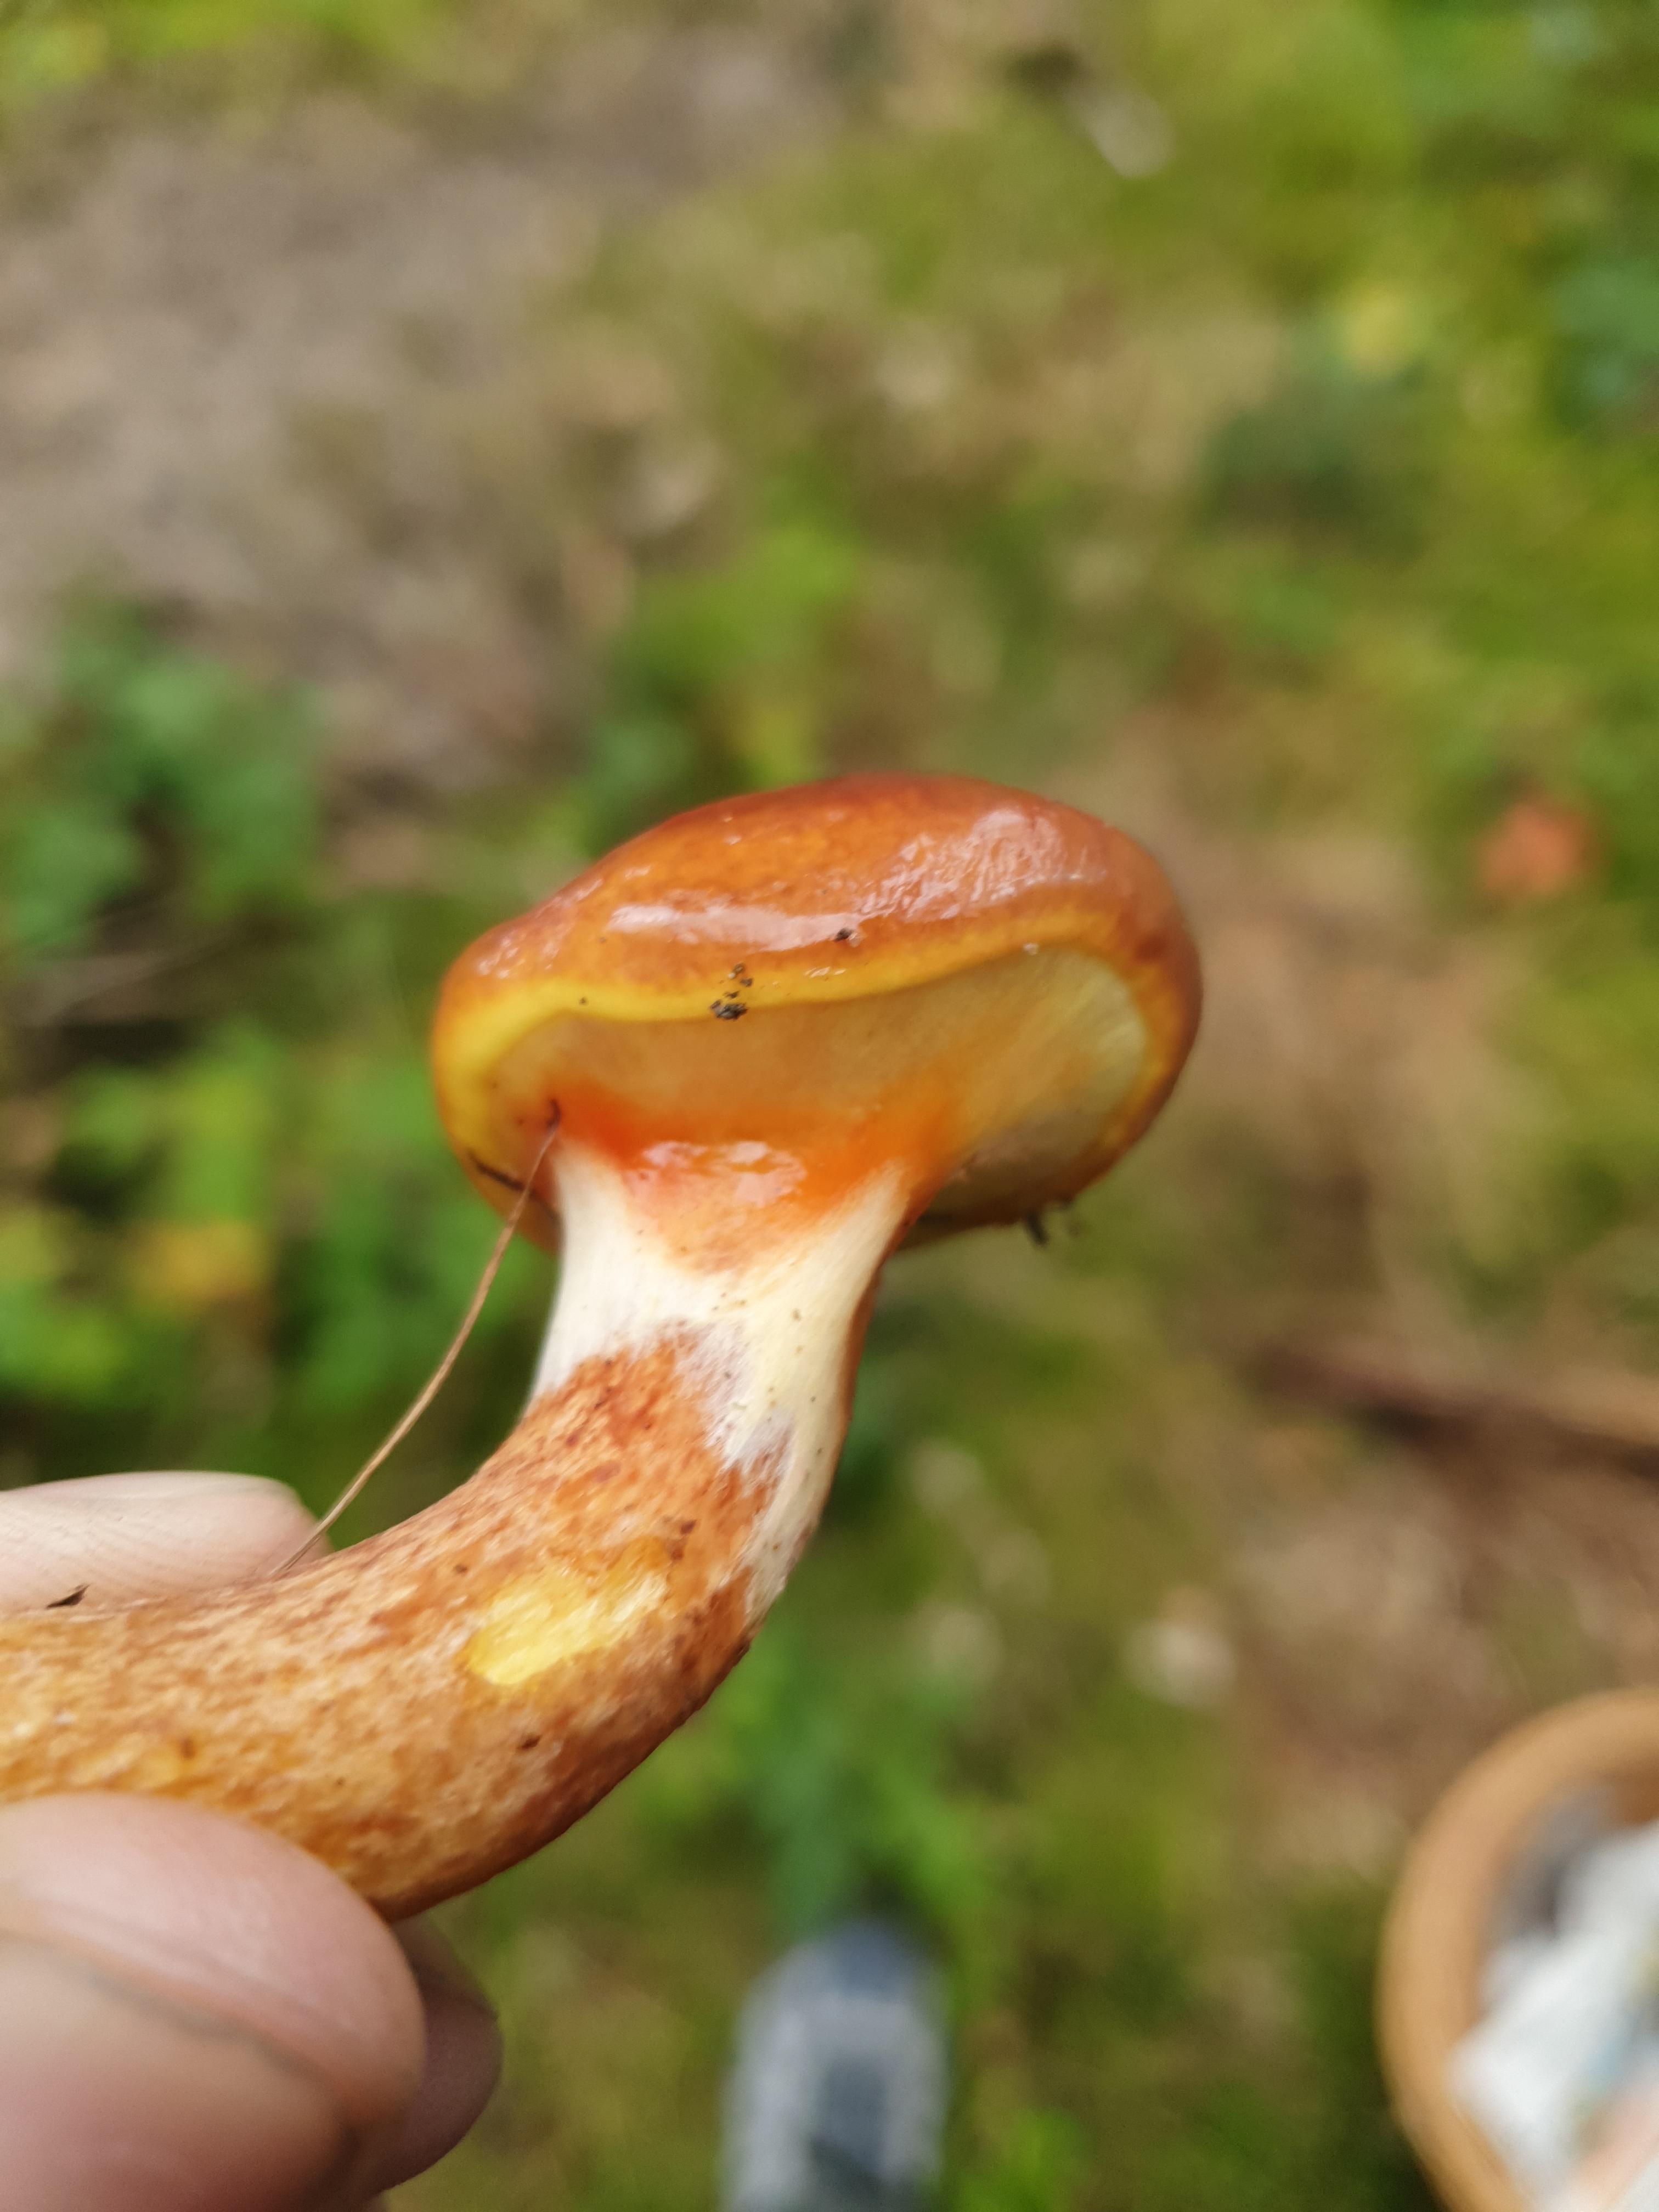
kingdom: Fungi
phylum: Basidiomycota
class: Agaricomycetes
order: Boletales
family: Suillaceae
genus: Suillus
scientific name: Suillus grevillei
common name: lærke-slimrørhat
